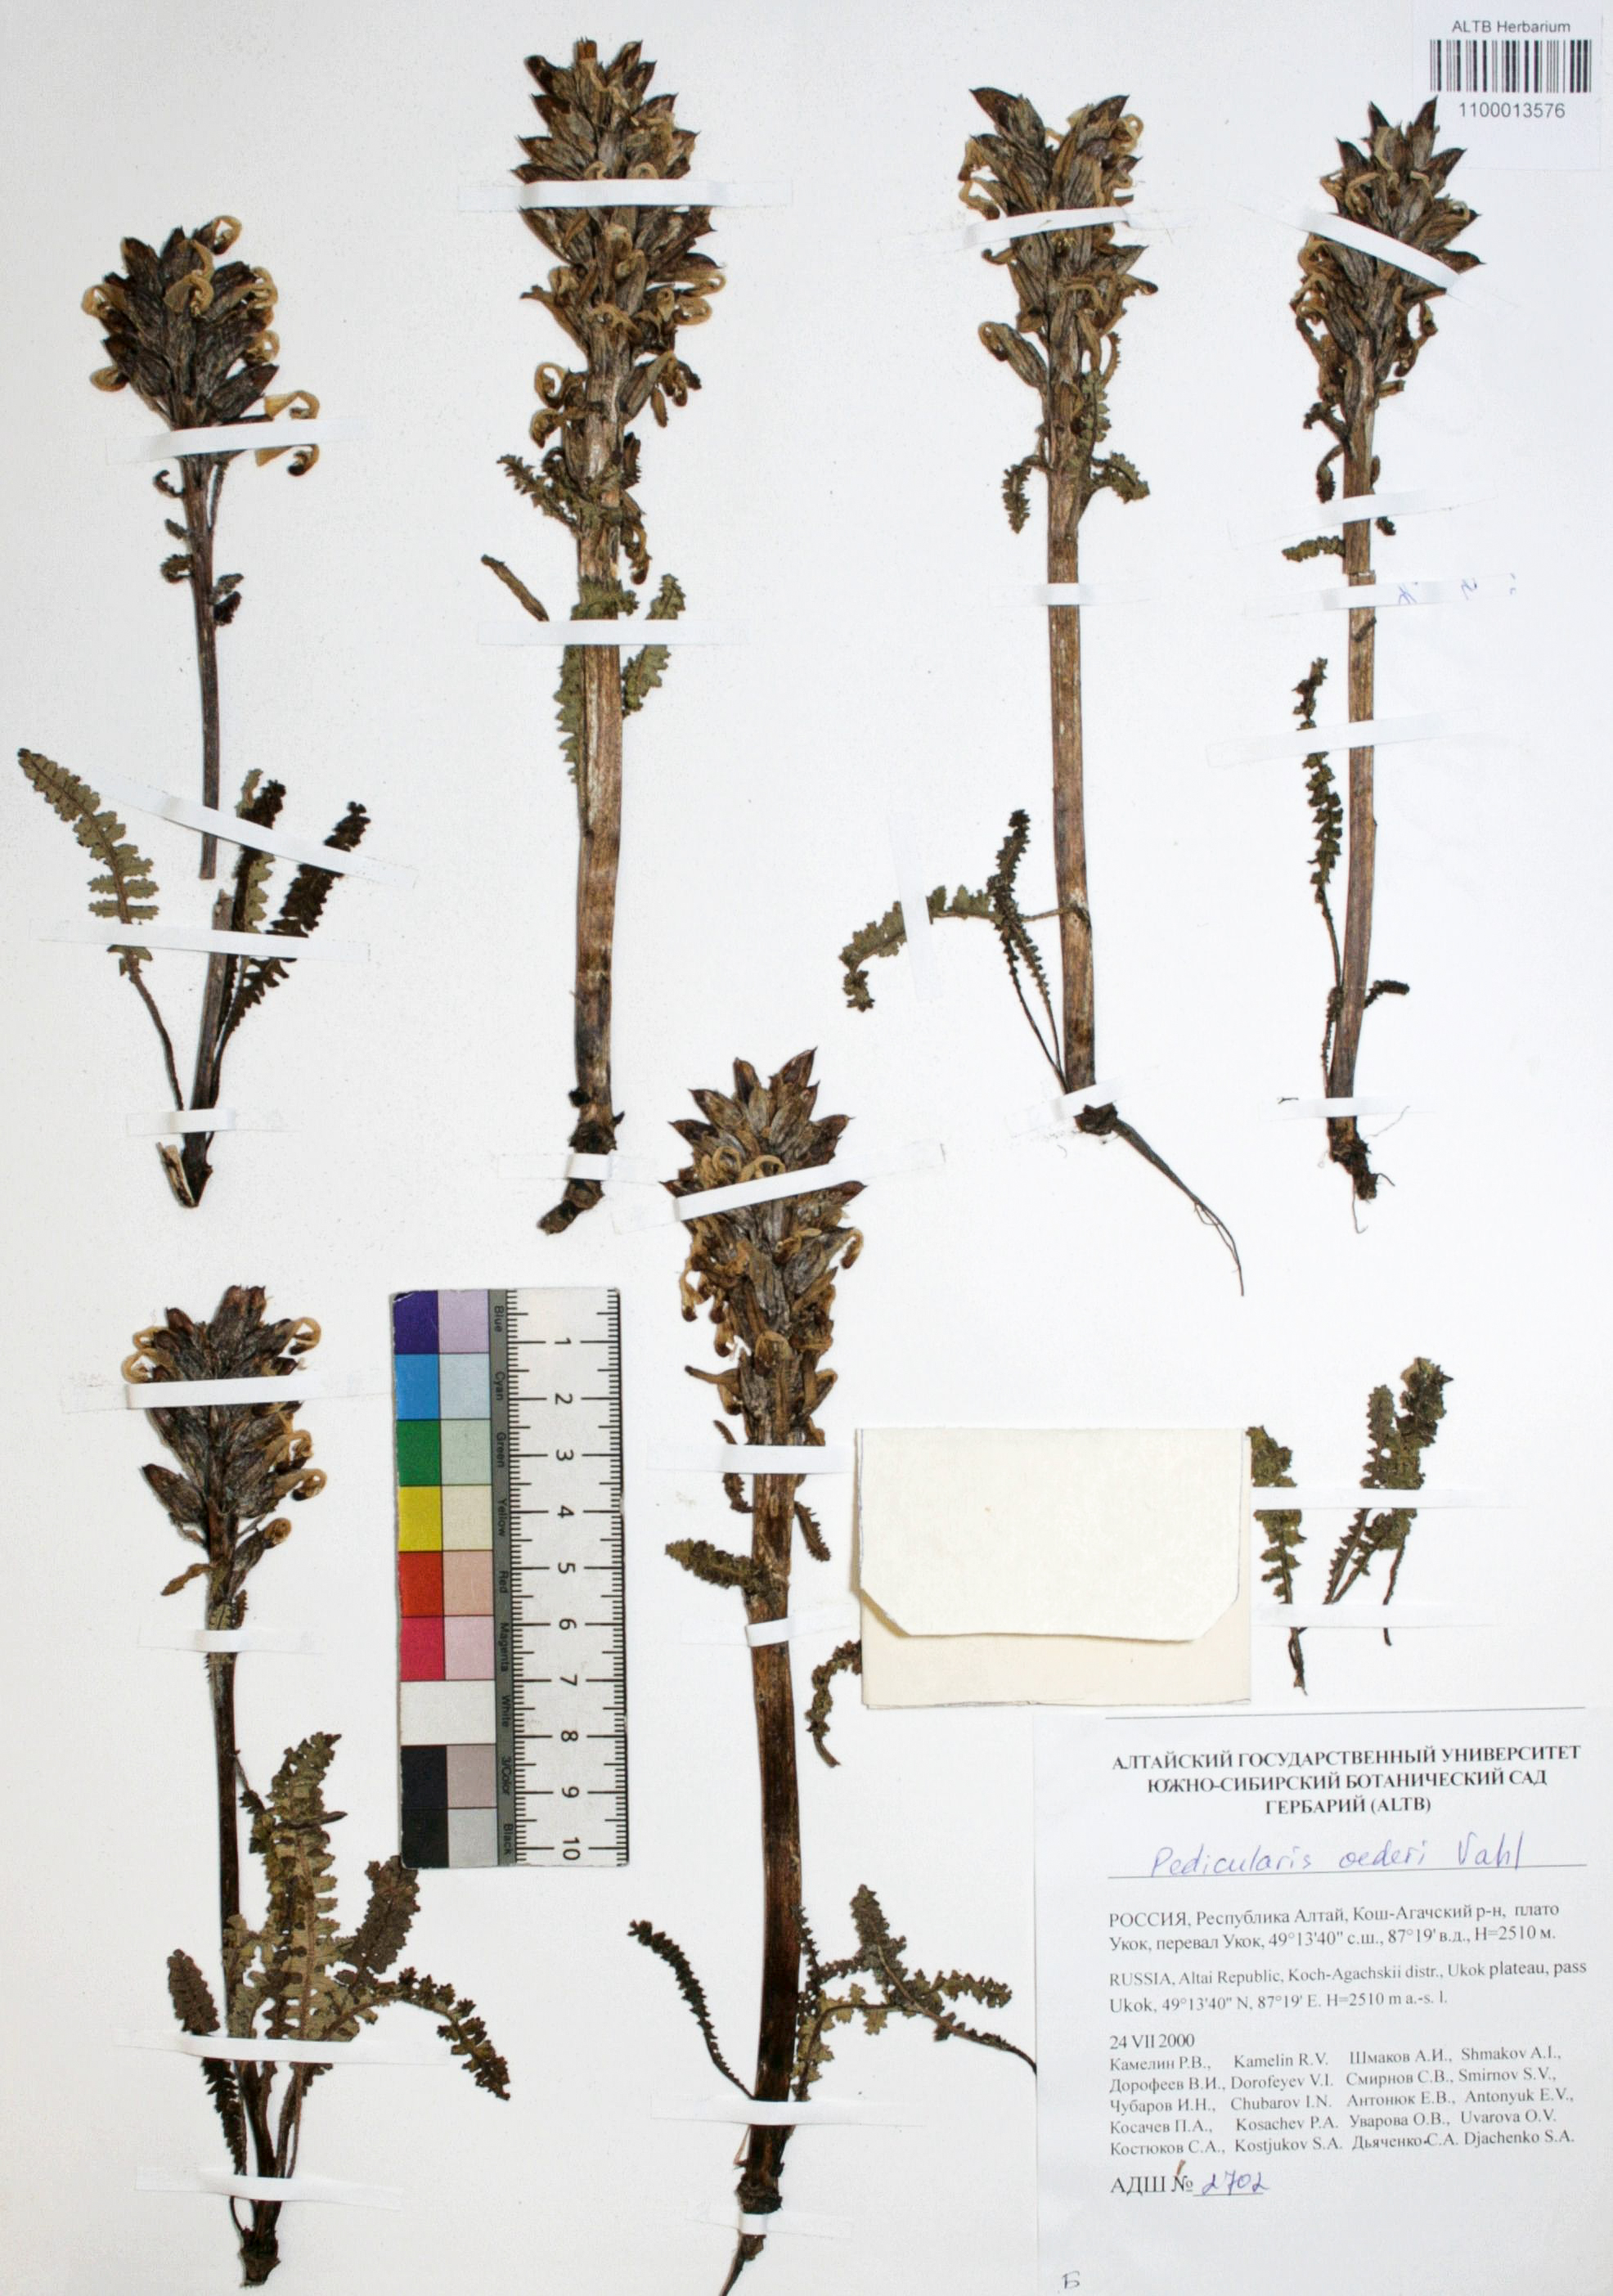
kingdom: Plantae
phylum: Tracheophyta
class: Magnoliopsida
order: Caryophyllales
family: Caryophyllaceae
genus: Silene
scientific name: Silene graminifolia
